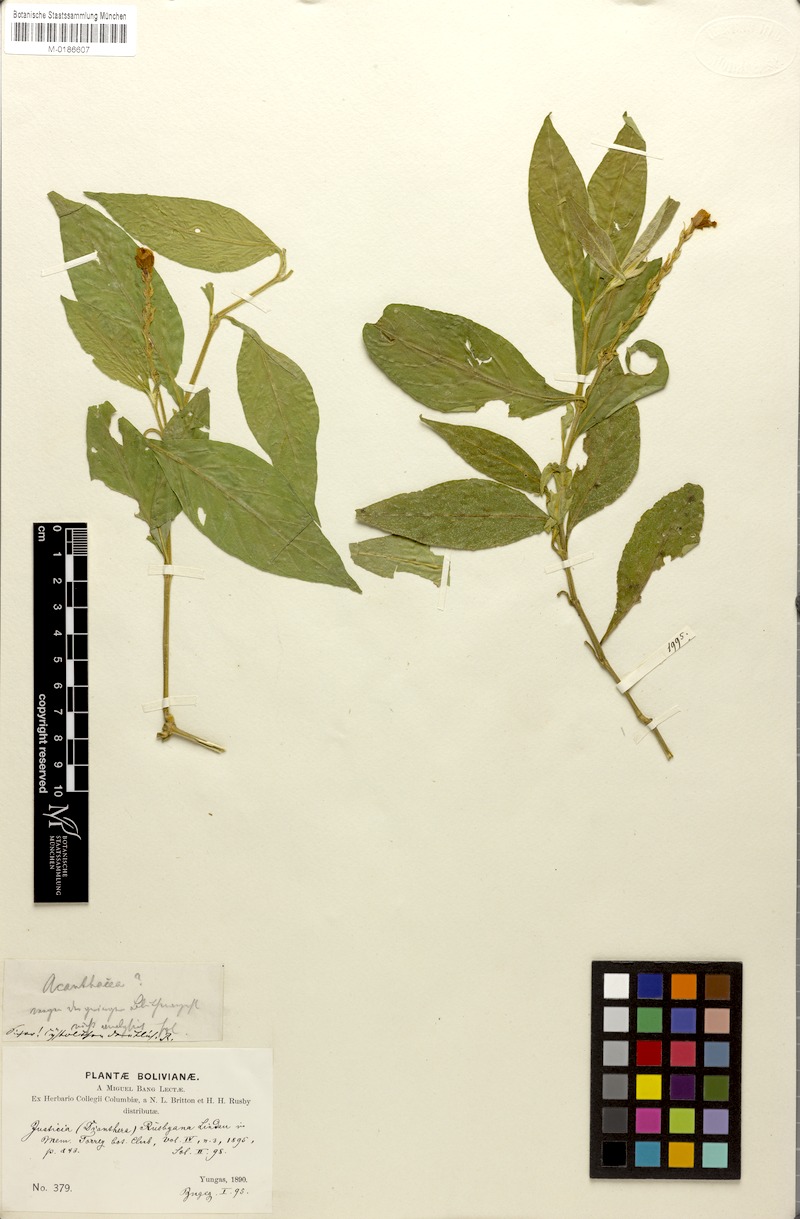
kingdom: Plantae
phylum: Tracheophyta
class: Magnoliopsida
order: Lamiales
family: Acanthaceae
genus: Justicia
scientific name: Justicia rusbyana
